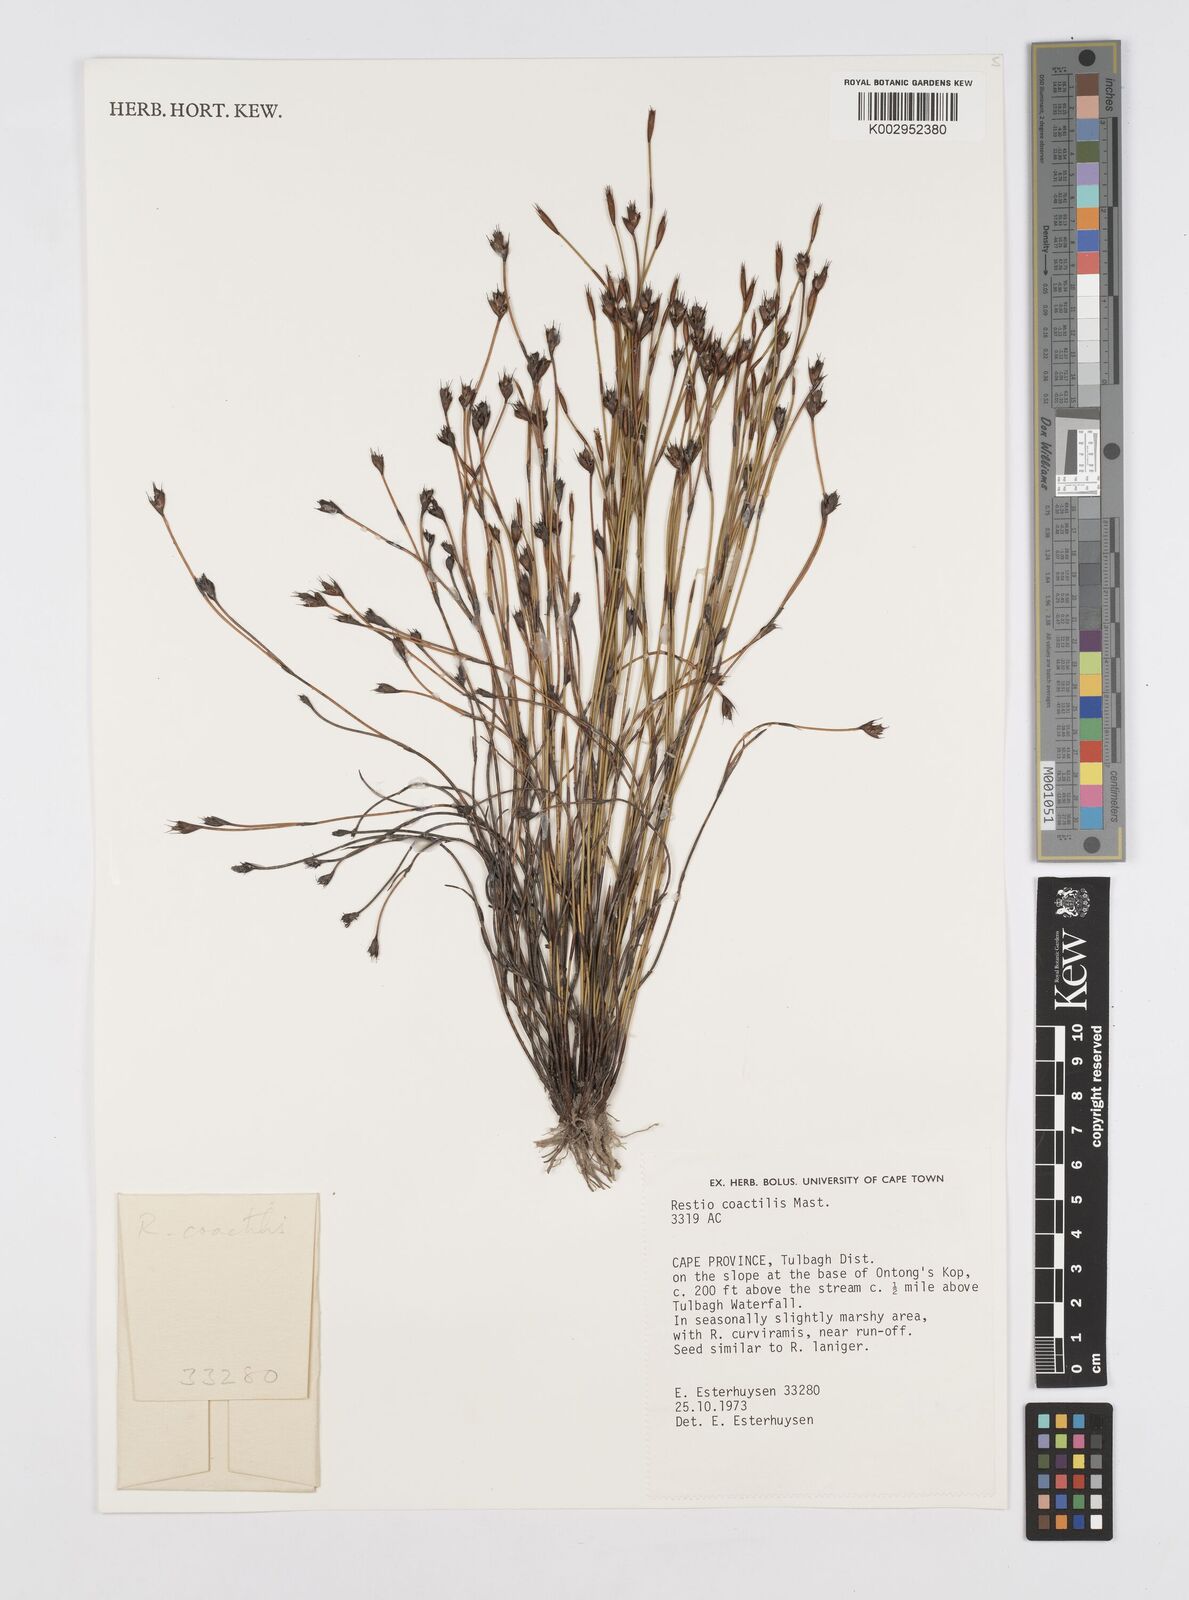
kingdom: Plantae
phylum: Tracheophyta
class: Liliopsida
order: Poales
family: Restionaceae
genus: Restio
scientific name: Restio coactilis
